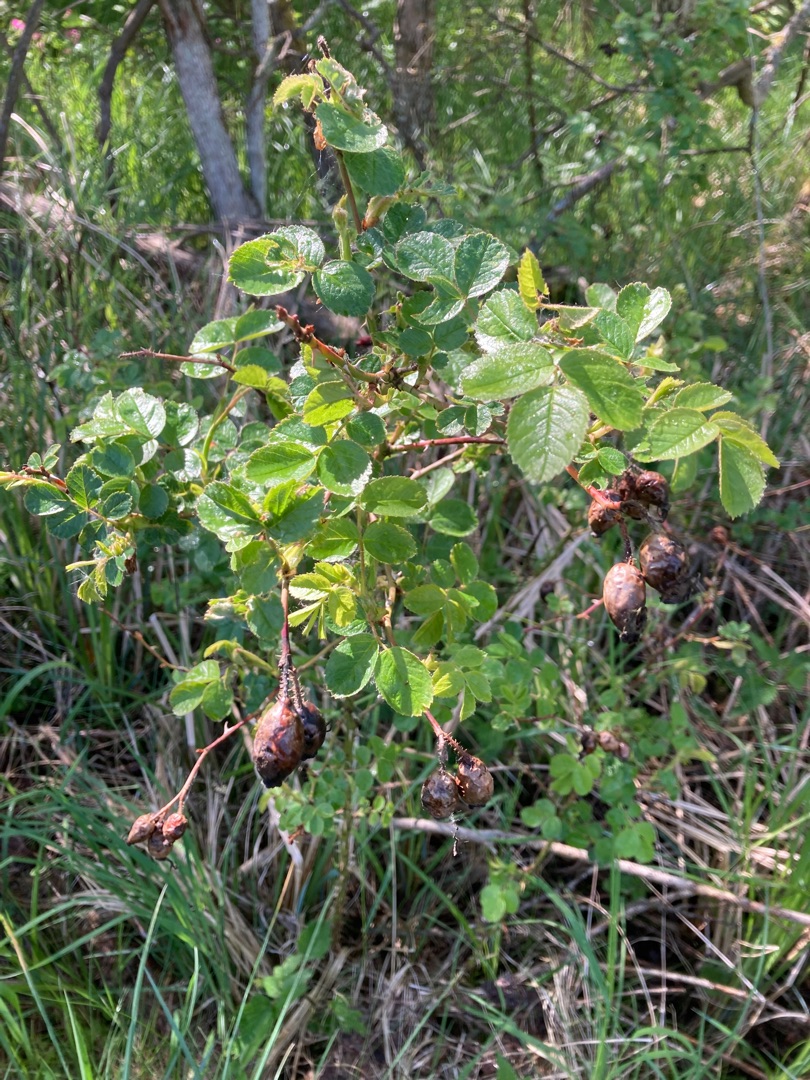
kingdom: Plantae
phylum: Tracheophyta
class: Magnoliopsida
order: Rosales
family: Rosaceae
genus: Rosa
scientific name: Rosa rubiginosa
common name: Æble-rose
